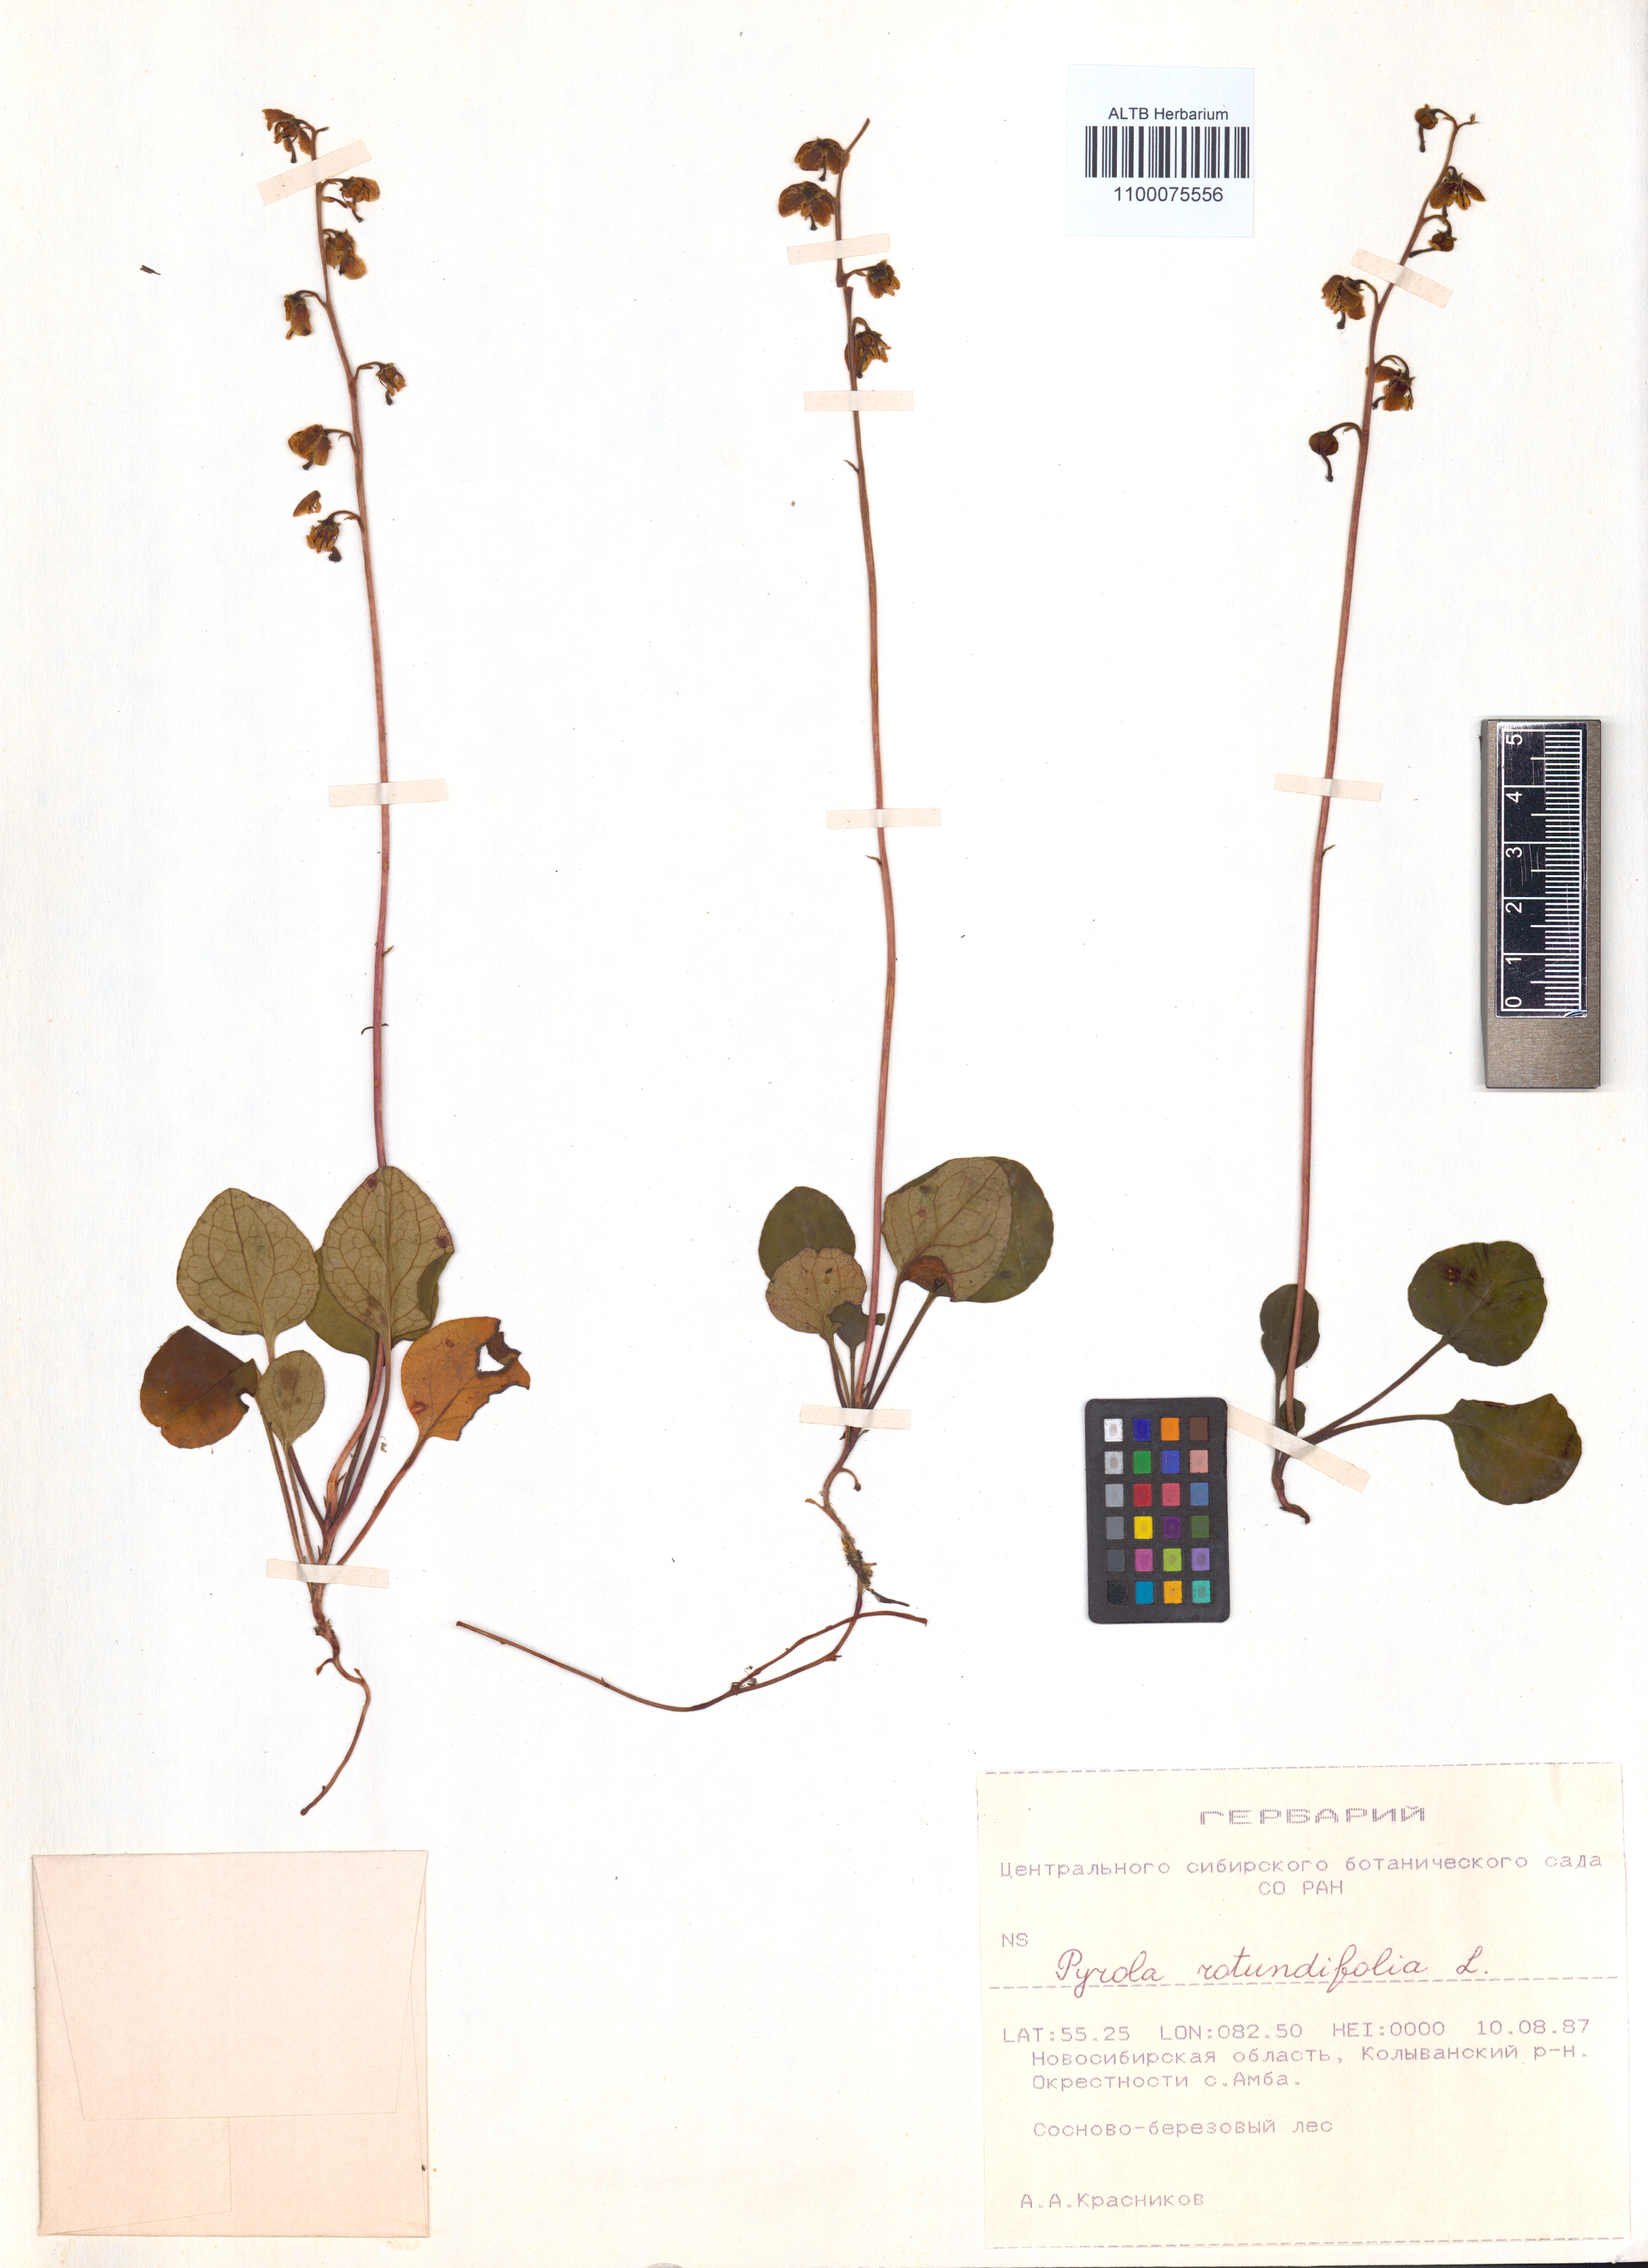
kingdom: Plantae
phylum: Tracheophyta
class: Magnoliopsida
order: Ericales
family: Ericaceae
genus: Pyrola
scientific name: Pyrola rotundifolia
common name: Round-leaved wintergreen
